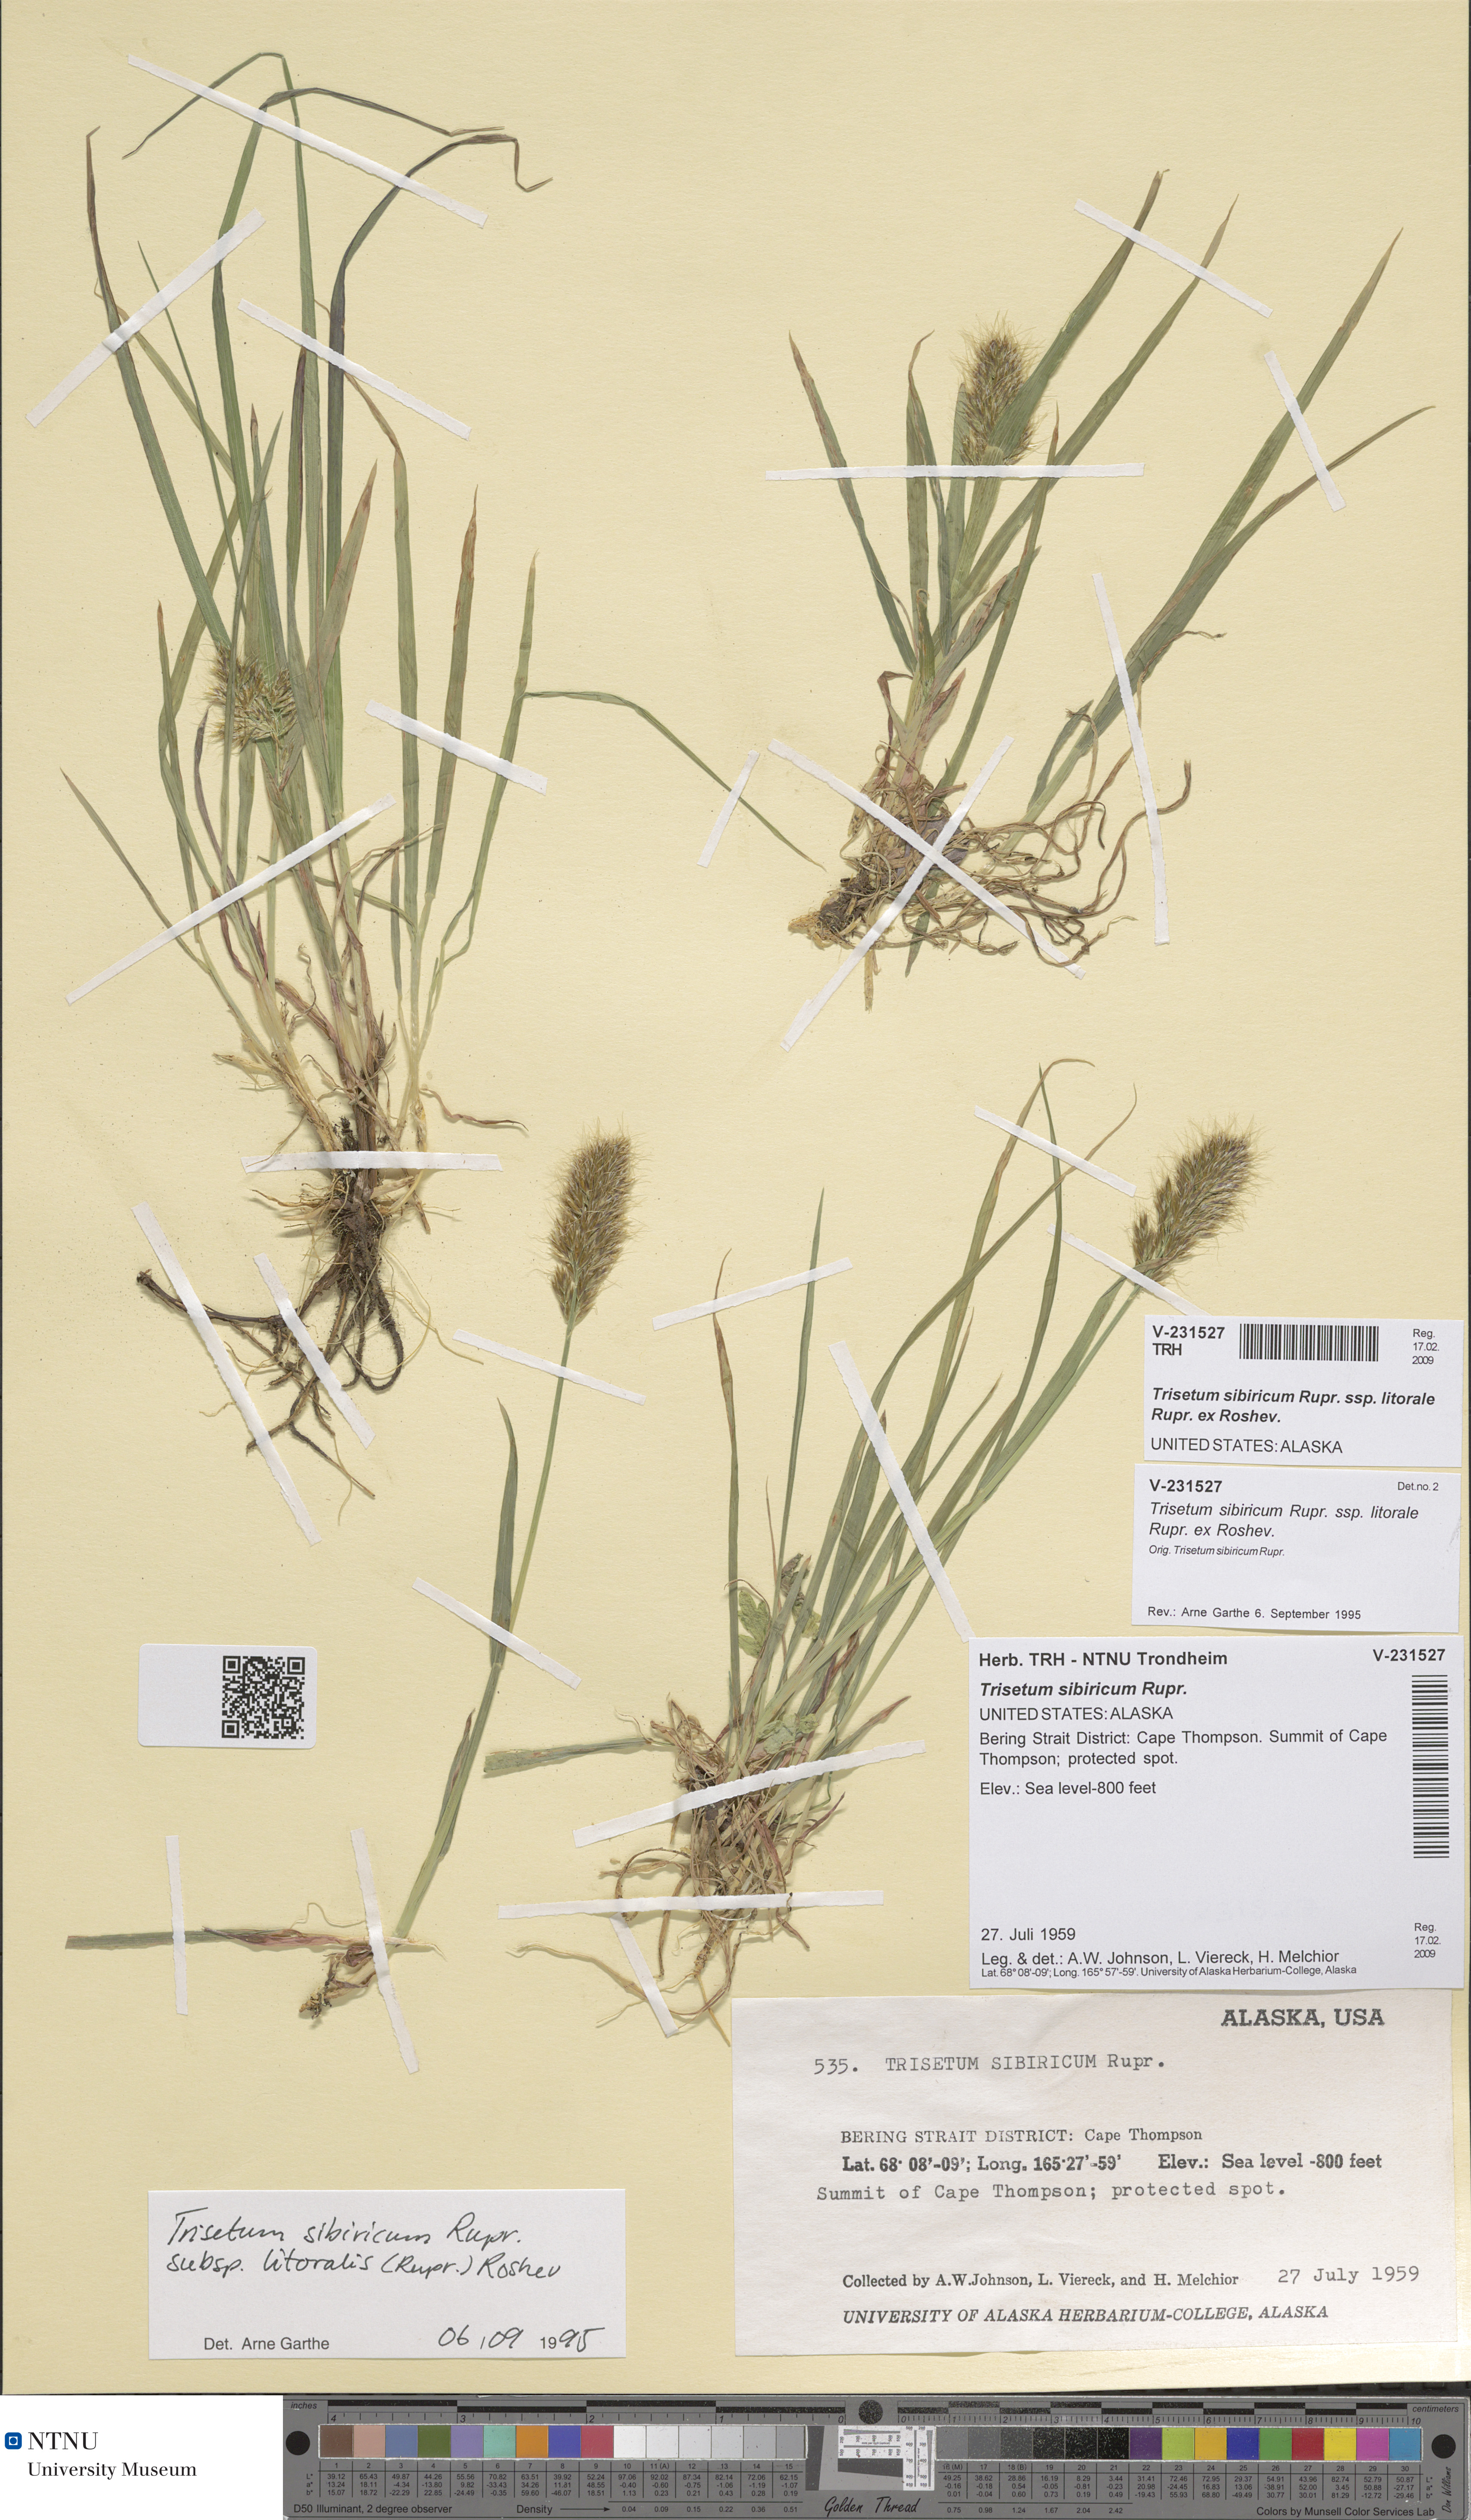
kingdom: Plantae
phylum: Tracheophyta
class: Liliopsida
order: Poales
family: Poaceae
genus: Sibirotrisetum
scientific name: Sibirotrisetum sibiricum
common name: Siberian false oat
